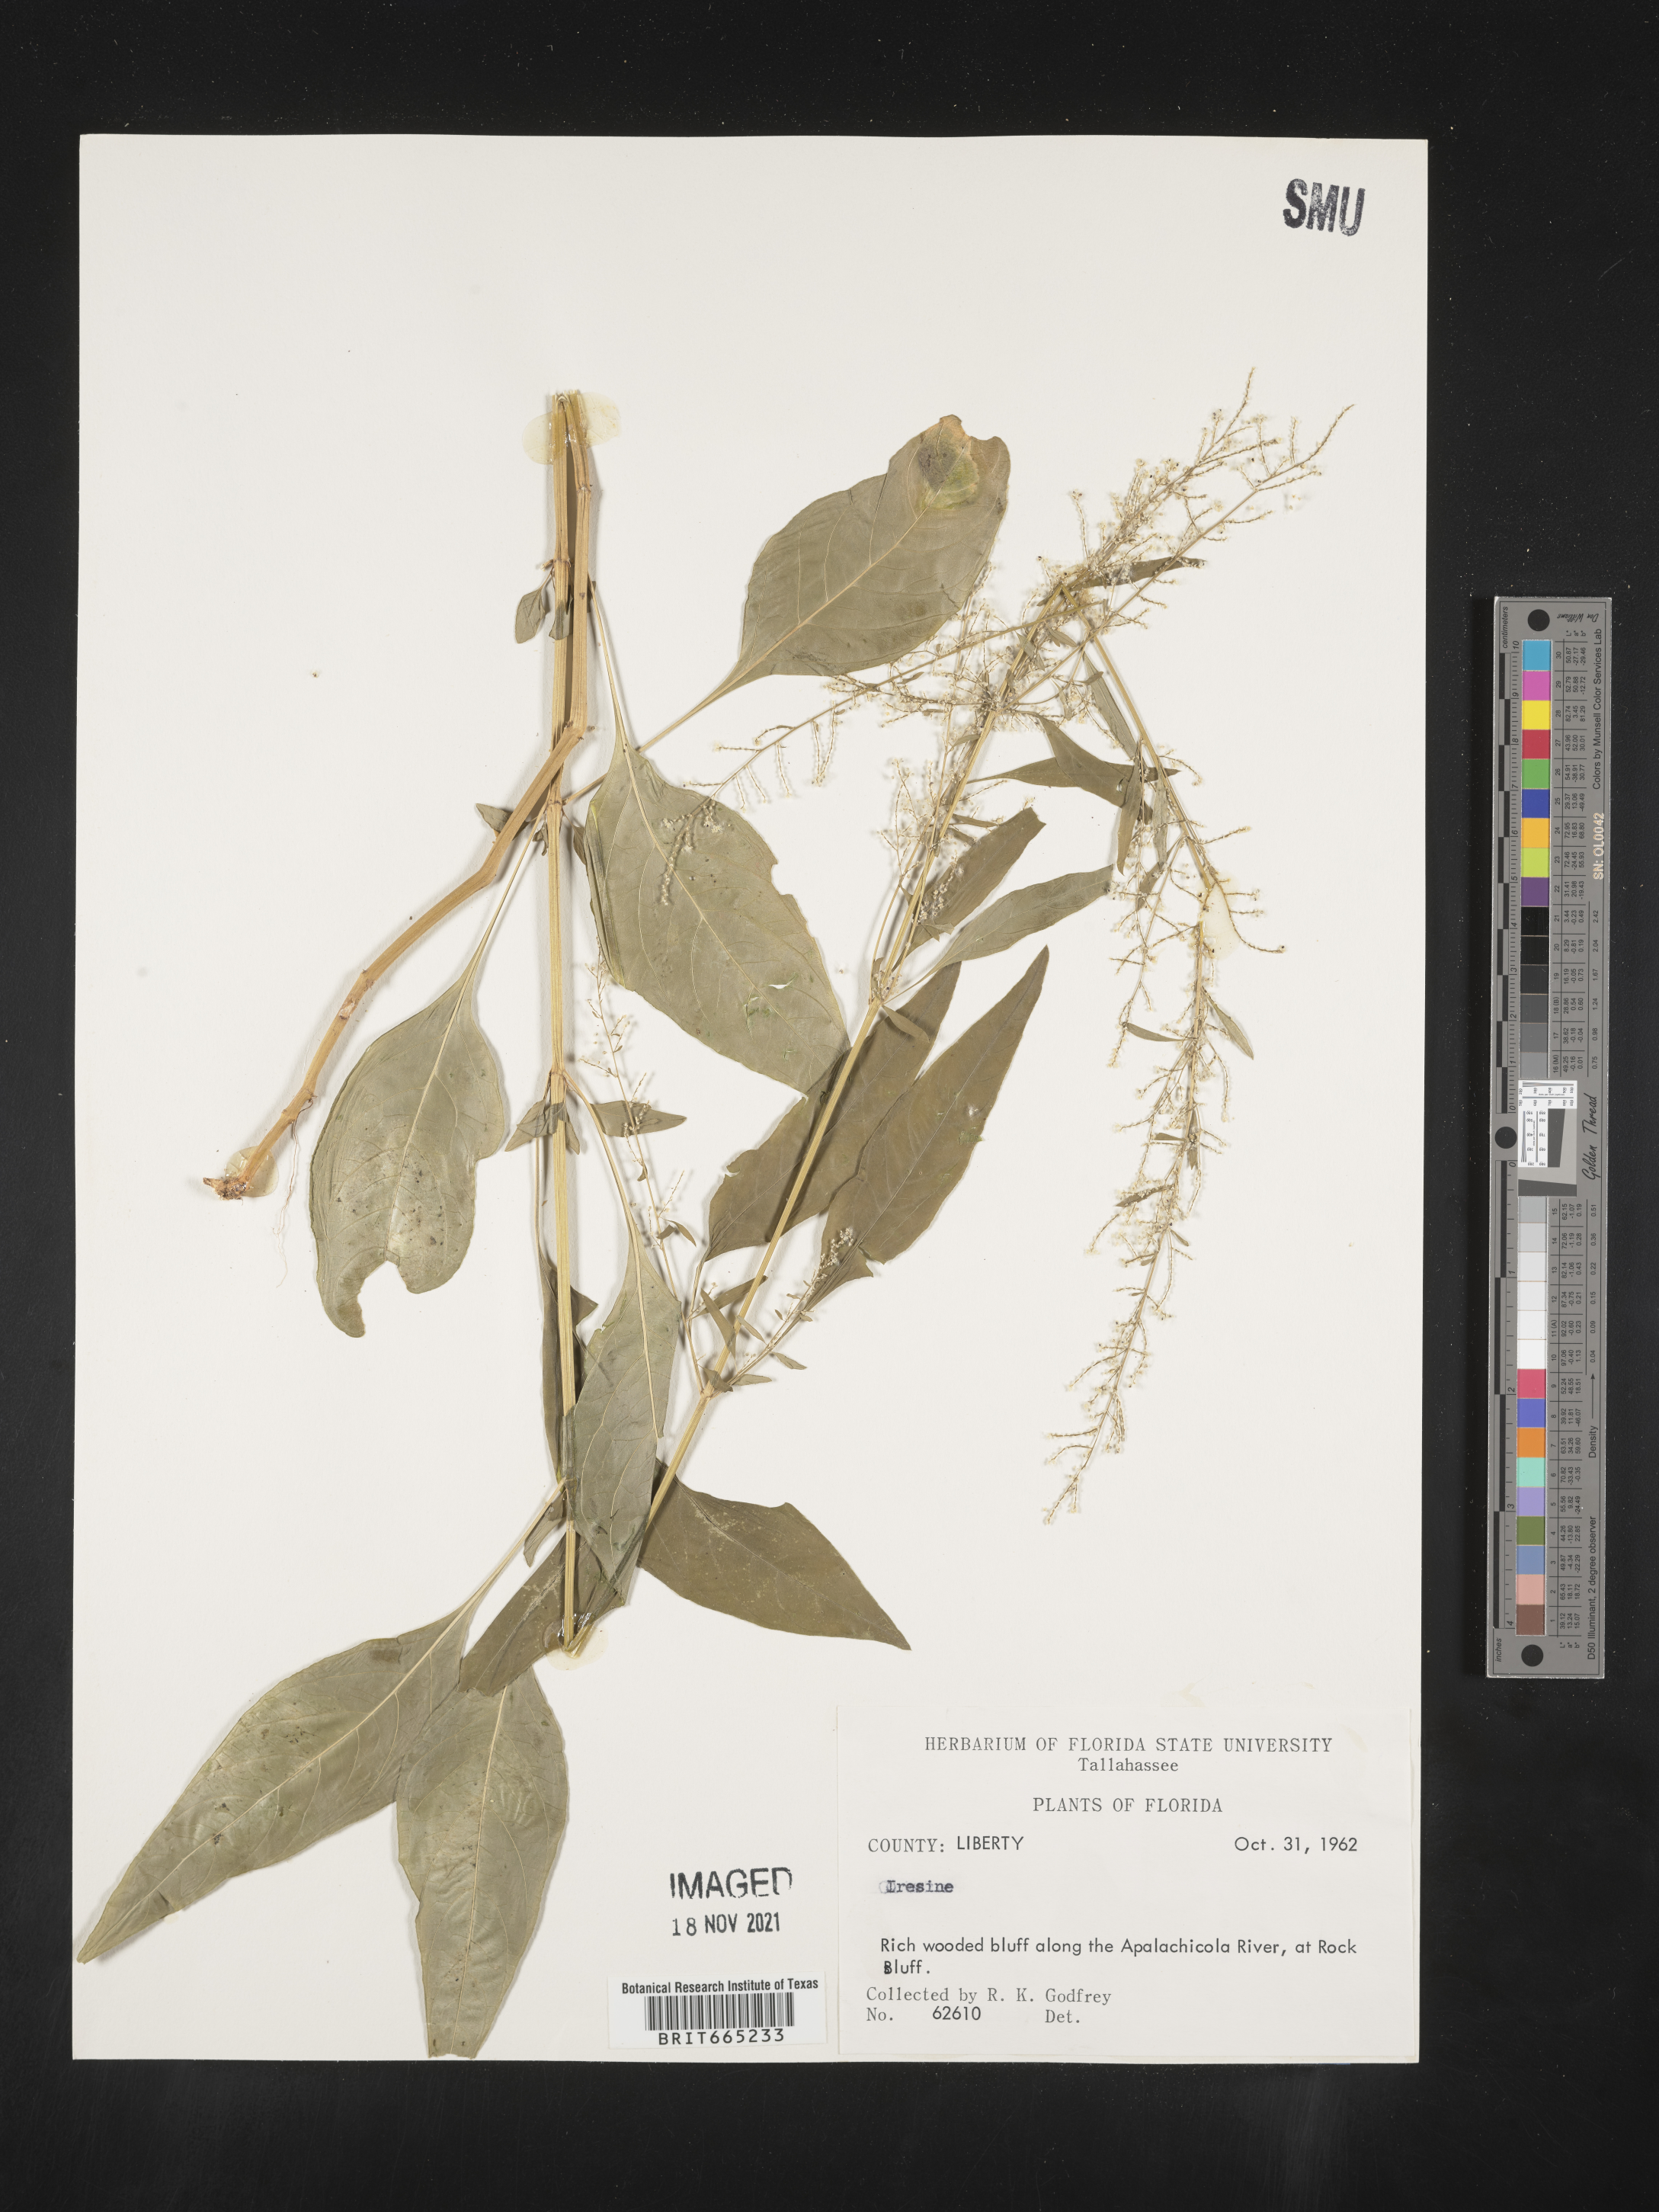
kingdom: Plantae
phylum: Tracheophyta
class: Magnoliopsida
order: Caryophyllales
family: Amaranthaceae
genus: Iresine
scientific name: Iresine rhizomatosa
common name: Juda's-bush
